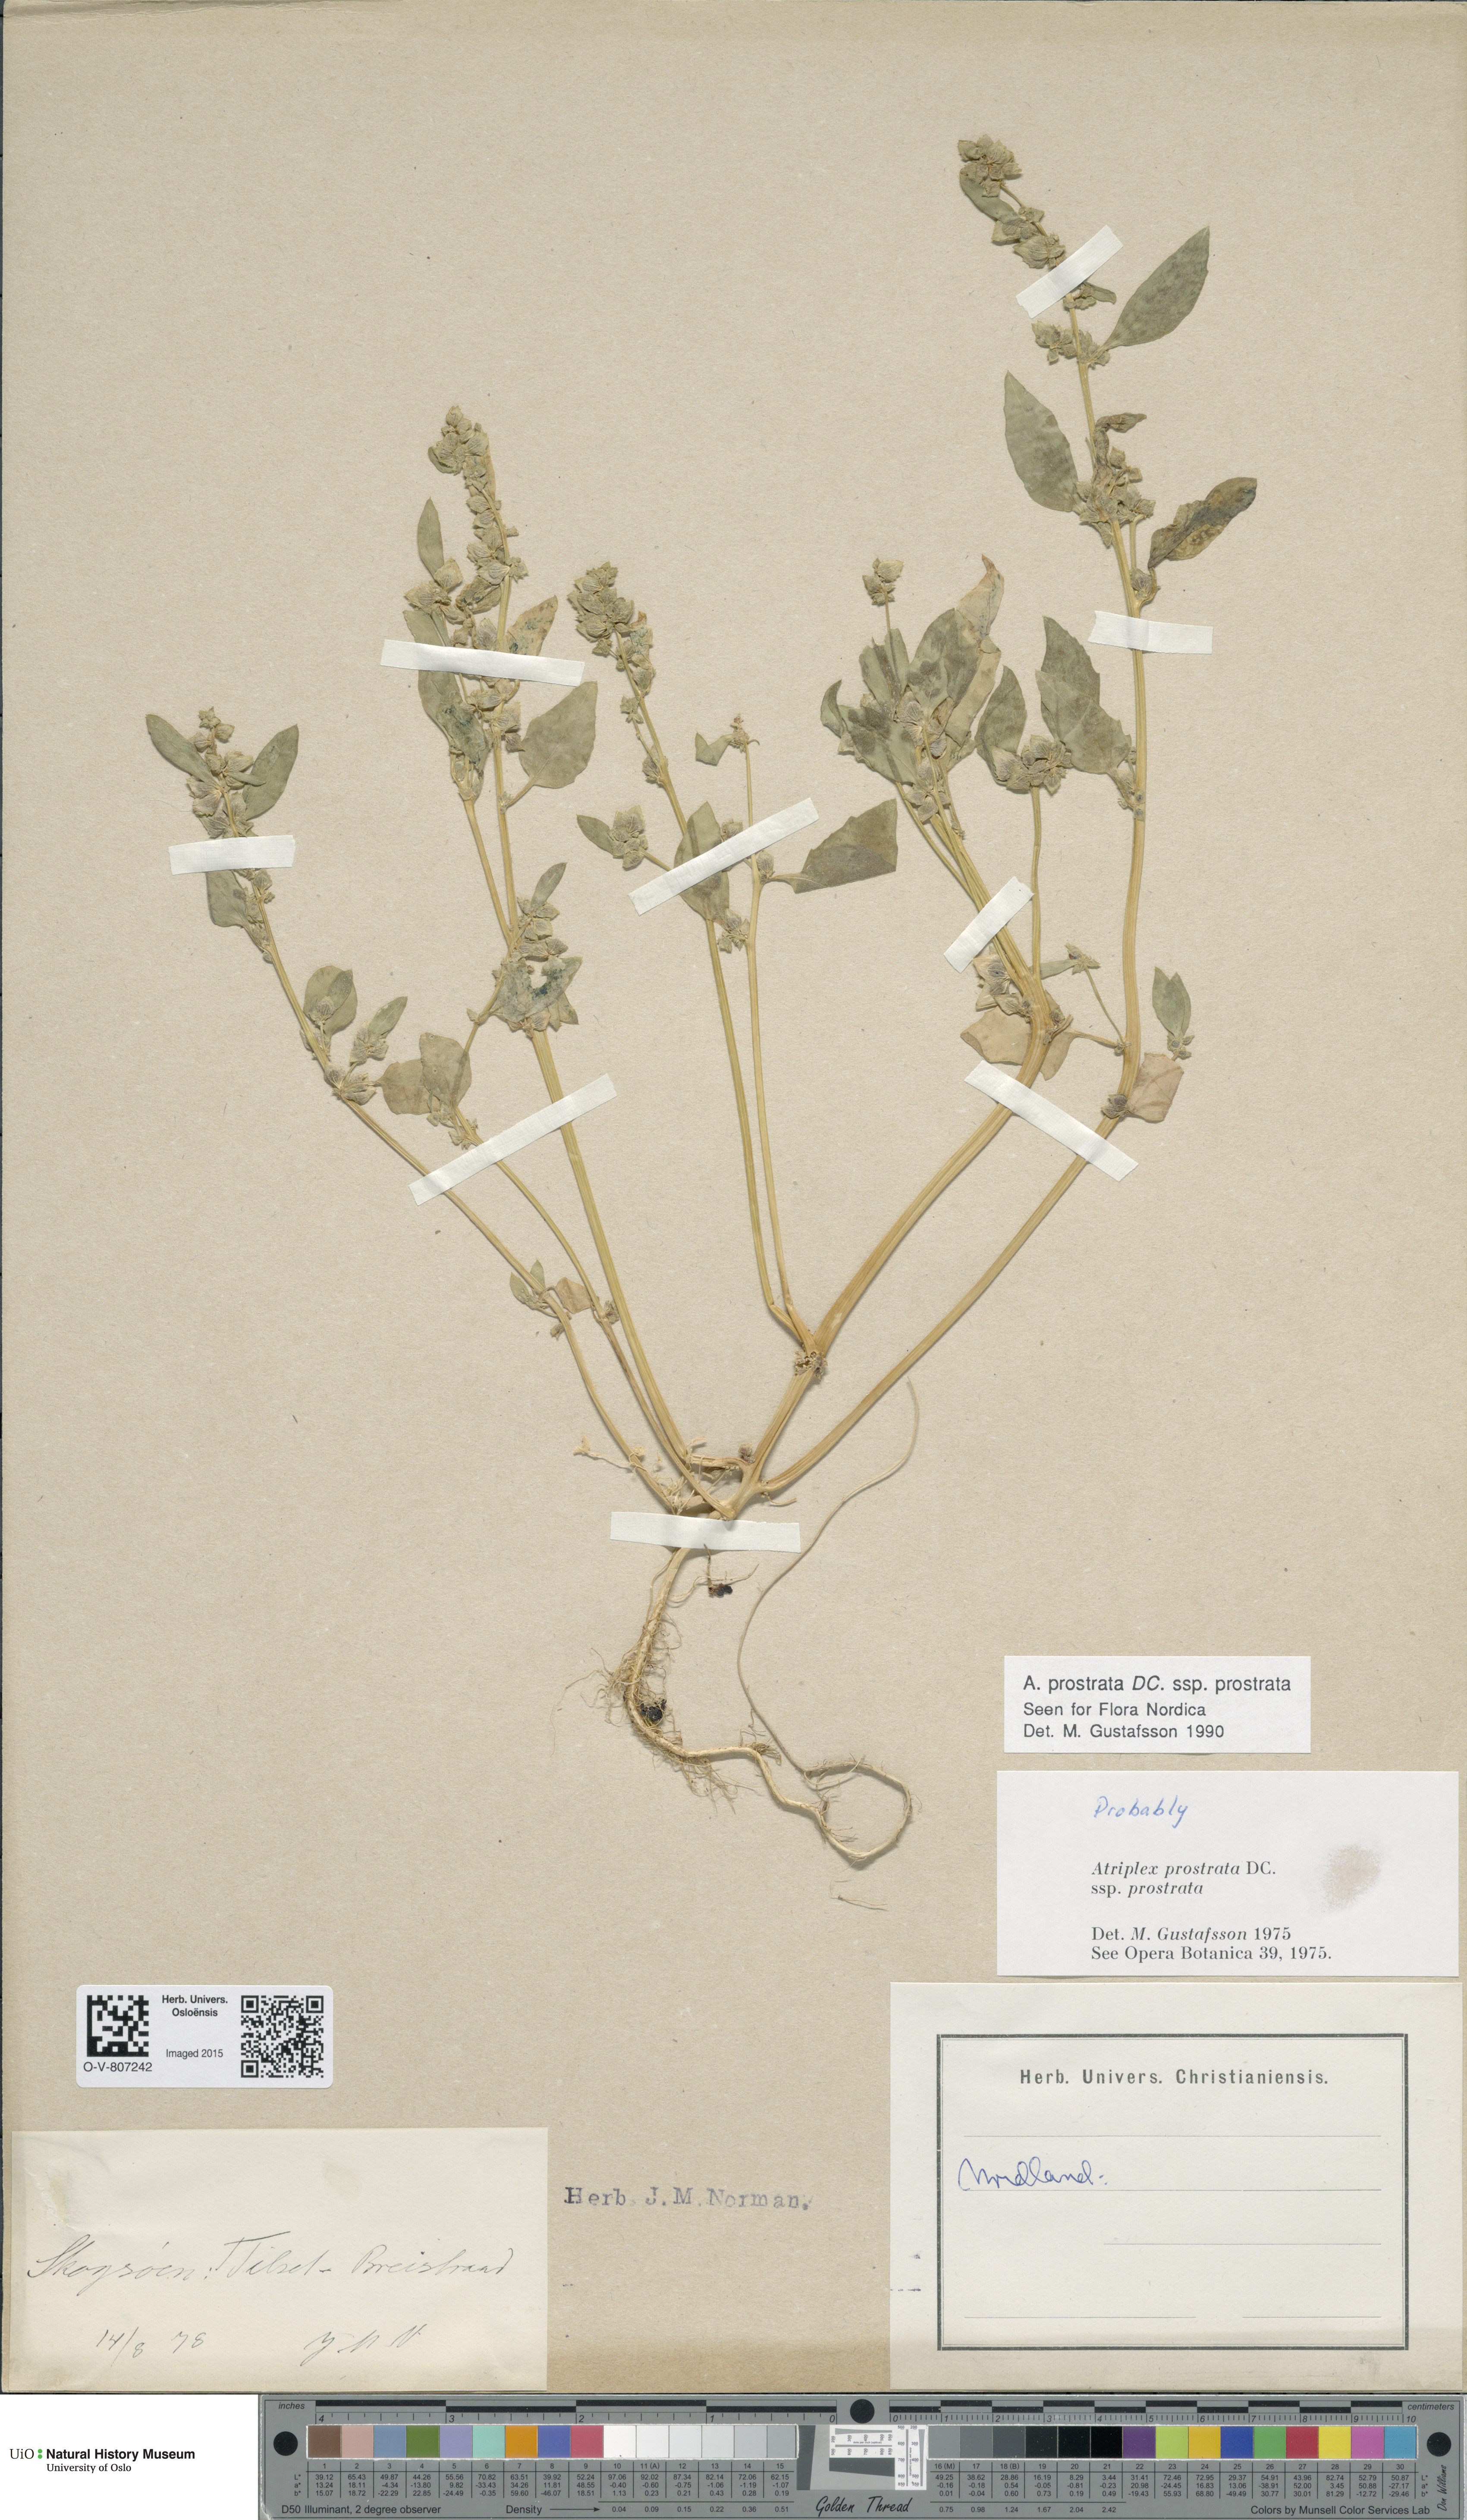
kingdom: Plantae
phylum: Tracheophyta
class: Magnoliopsida
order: Caryophyllales
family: Amaranthaceae
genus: Atriplex
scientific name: Atriplex prostrata
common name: Spear-leaved orache
